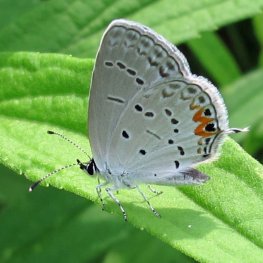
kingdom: Animalia
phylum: Arthropoda
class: Insecta
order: Lepidoptera
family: Lycaenidae
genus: Elkalyce
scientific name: Elkalyce comyntas
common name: Eastern Tailed-Blue
